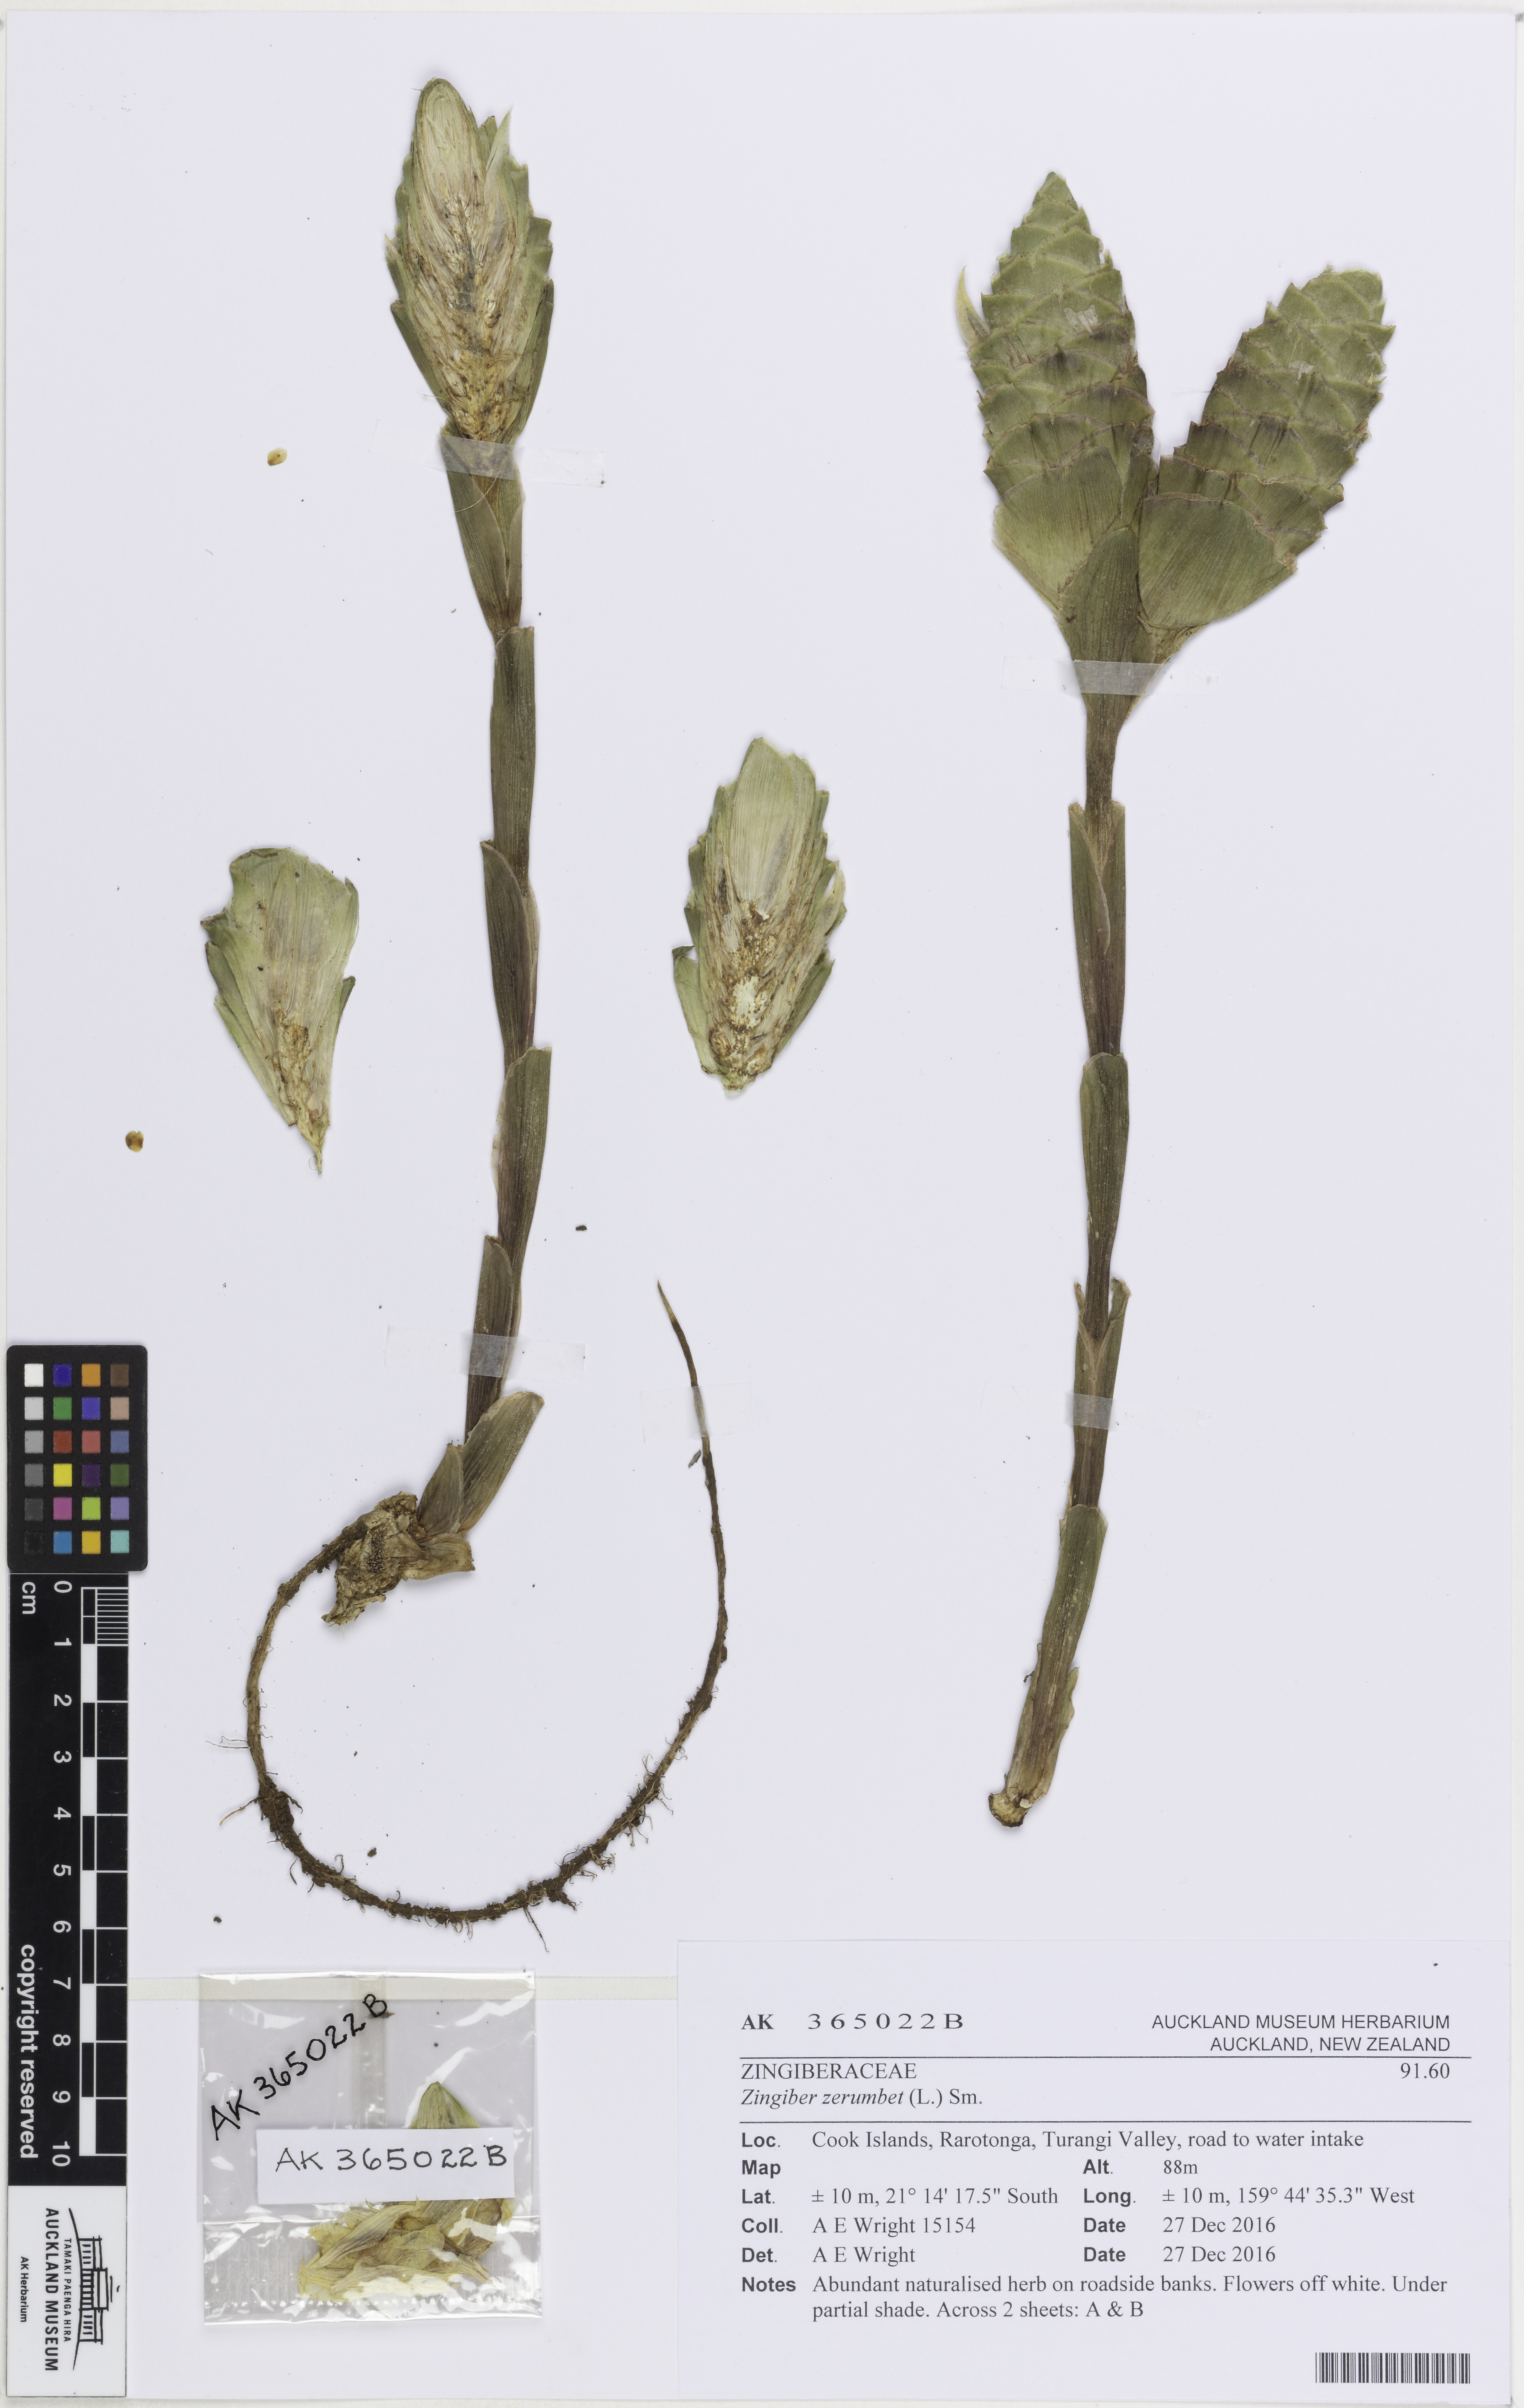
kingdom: Plantae
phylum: Tracheophyta
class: Liliopsida
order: Zingiberales
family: Zingiberaceae
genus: Zingiber
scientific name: Zingiber zerumbet
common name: Bitter ginger
